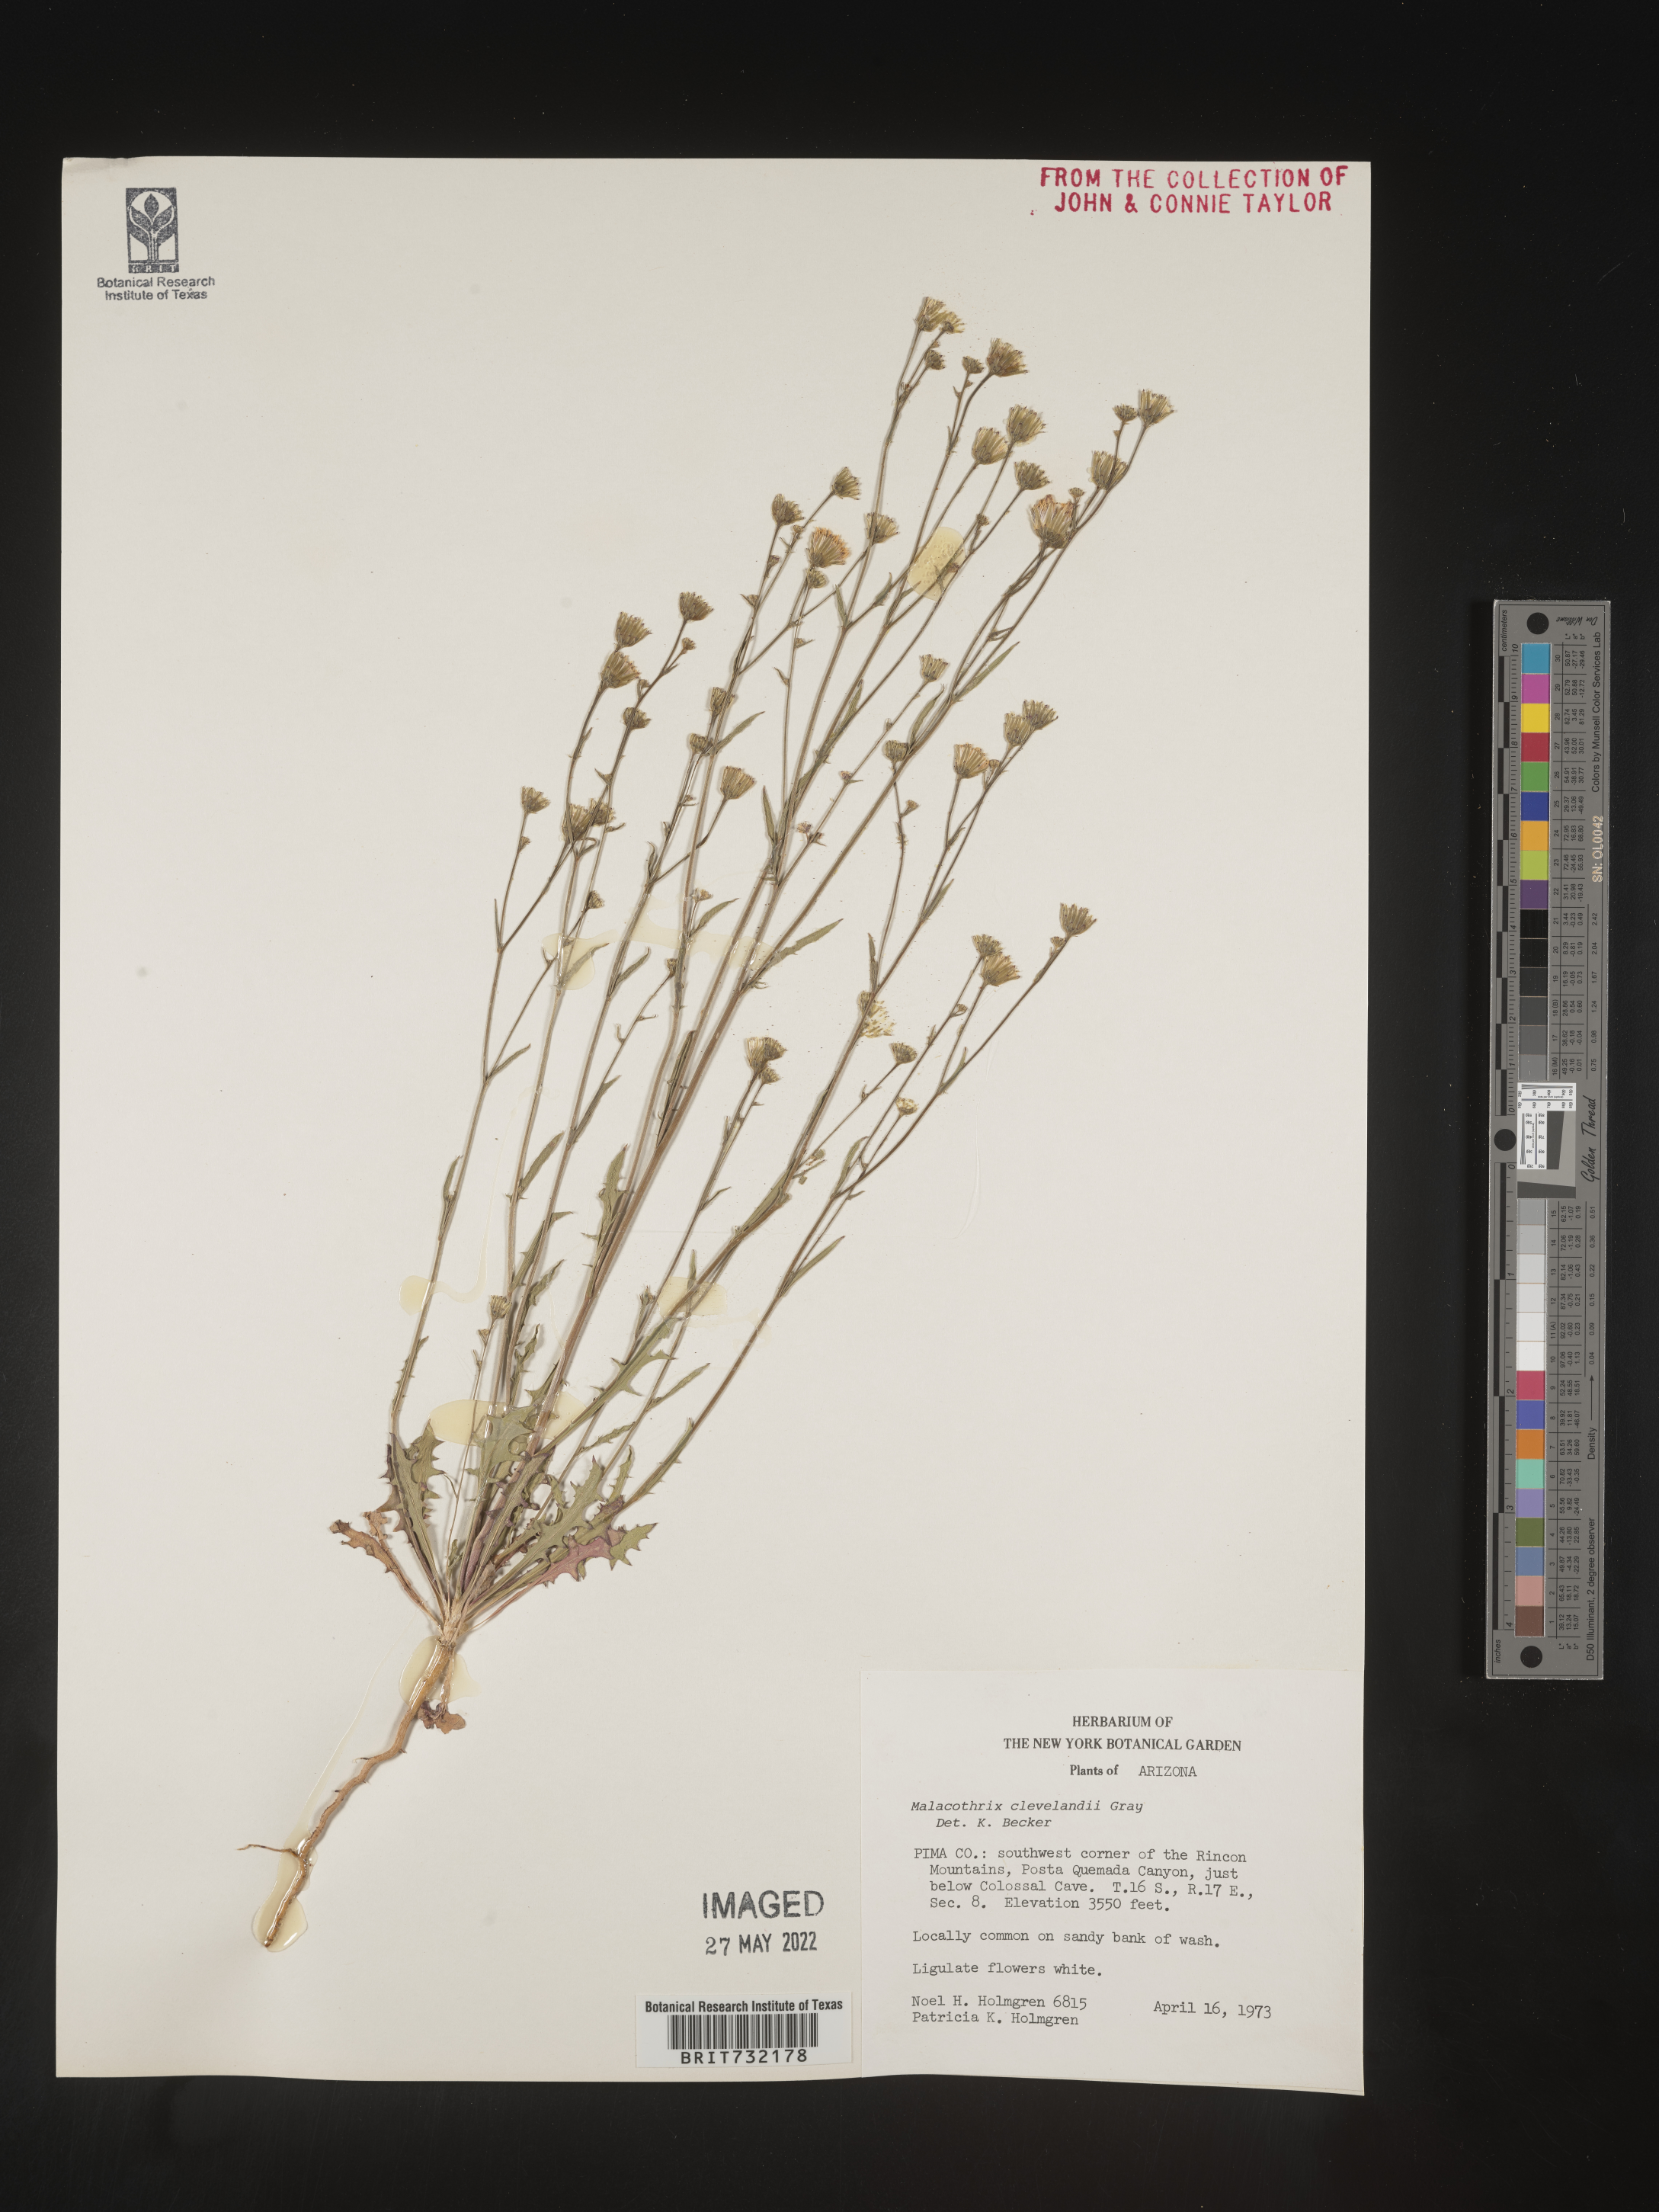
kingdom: Plantae
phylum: Tracheophyta
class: Magnoliopsida
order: Asterales
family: Asteraceae
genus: Malacothrix
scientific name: Malacothrix
